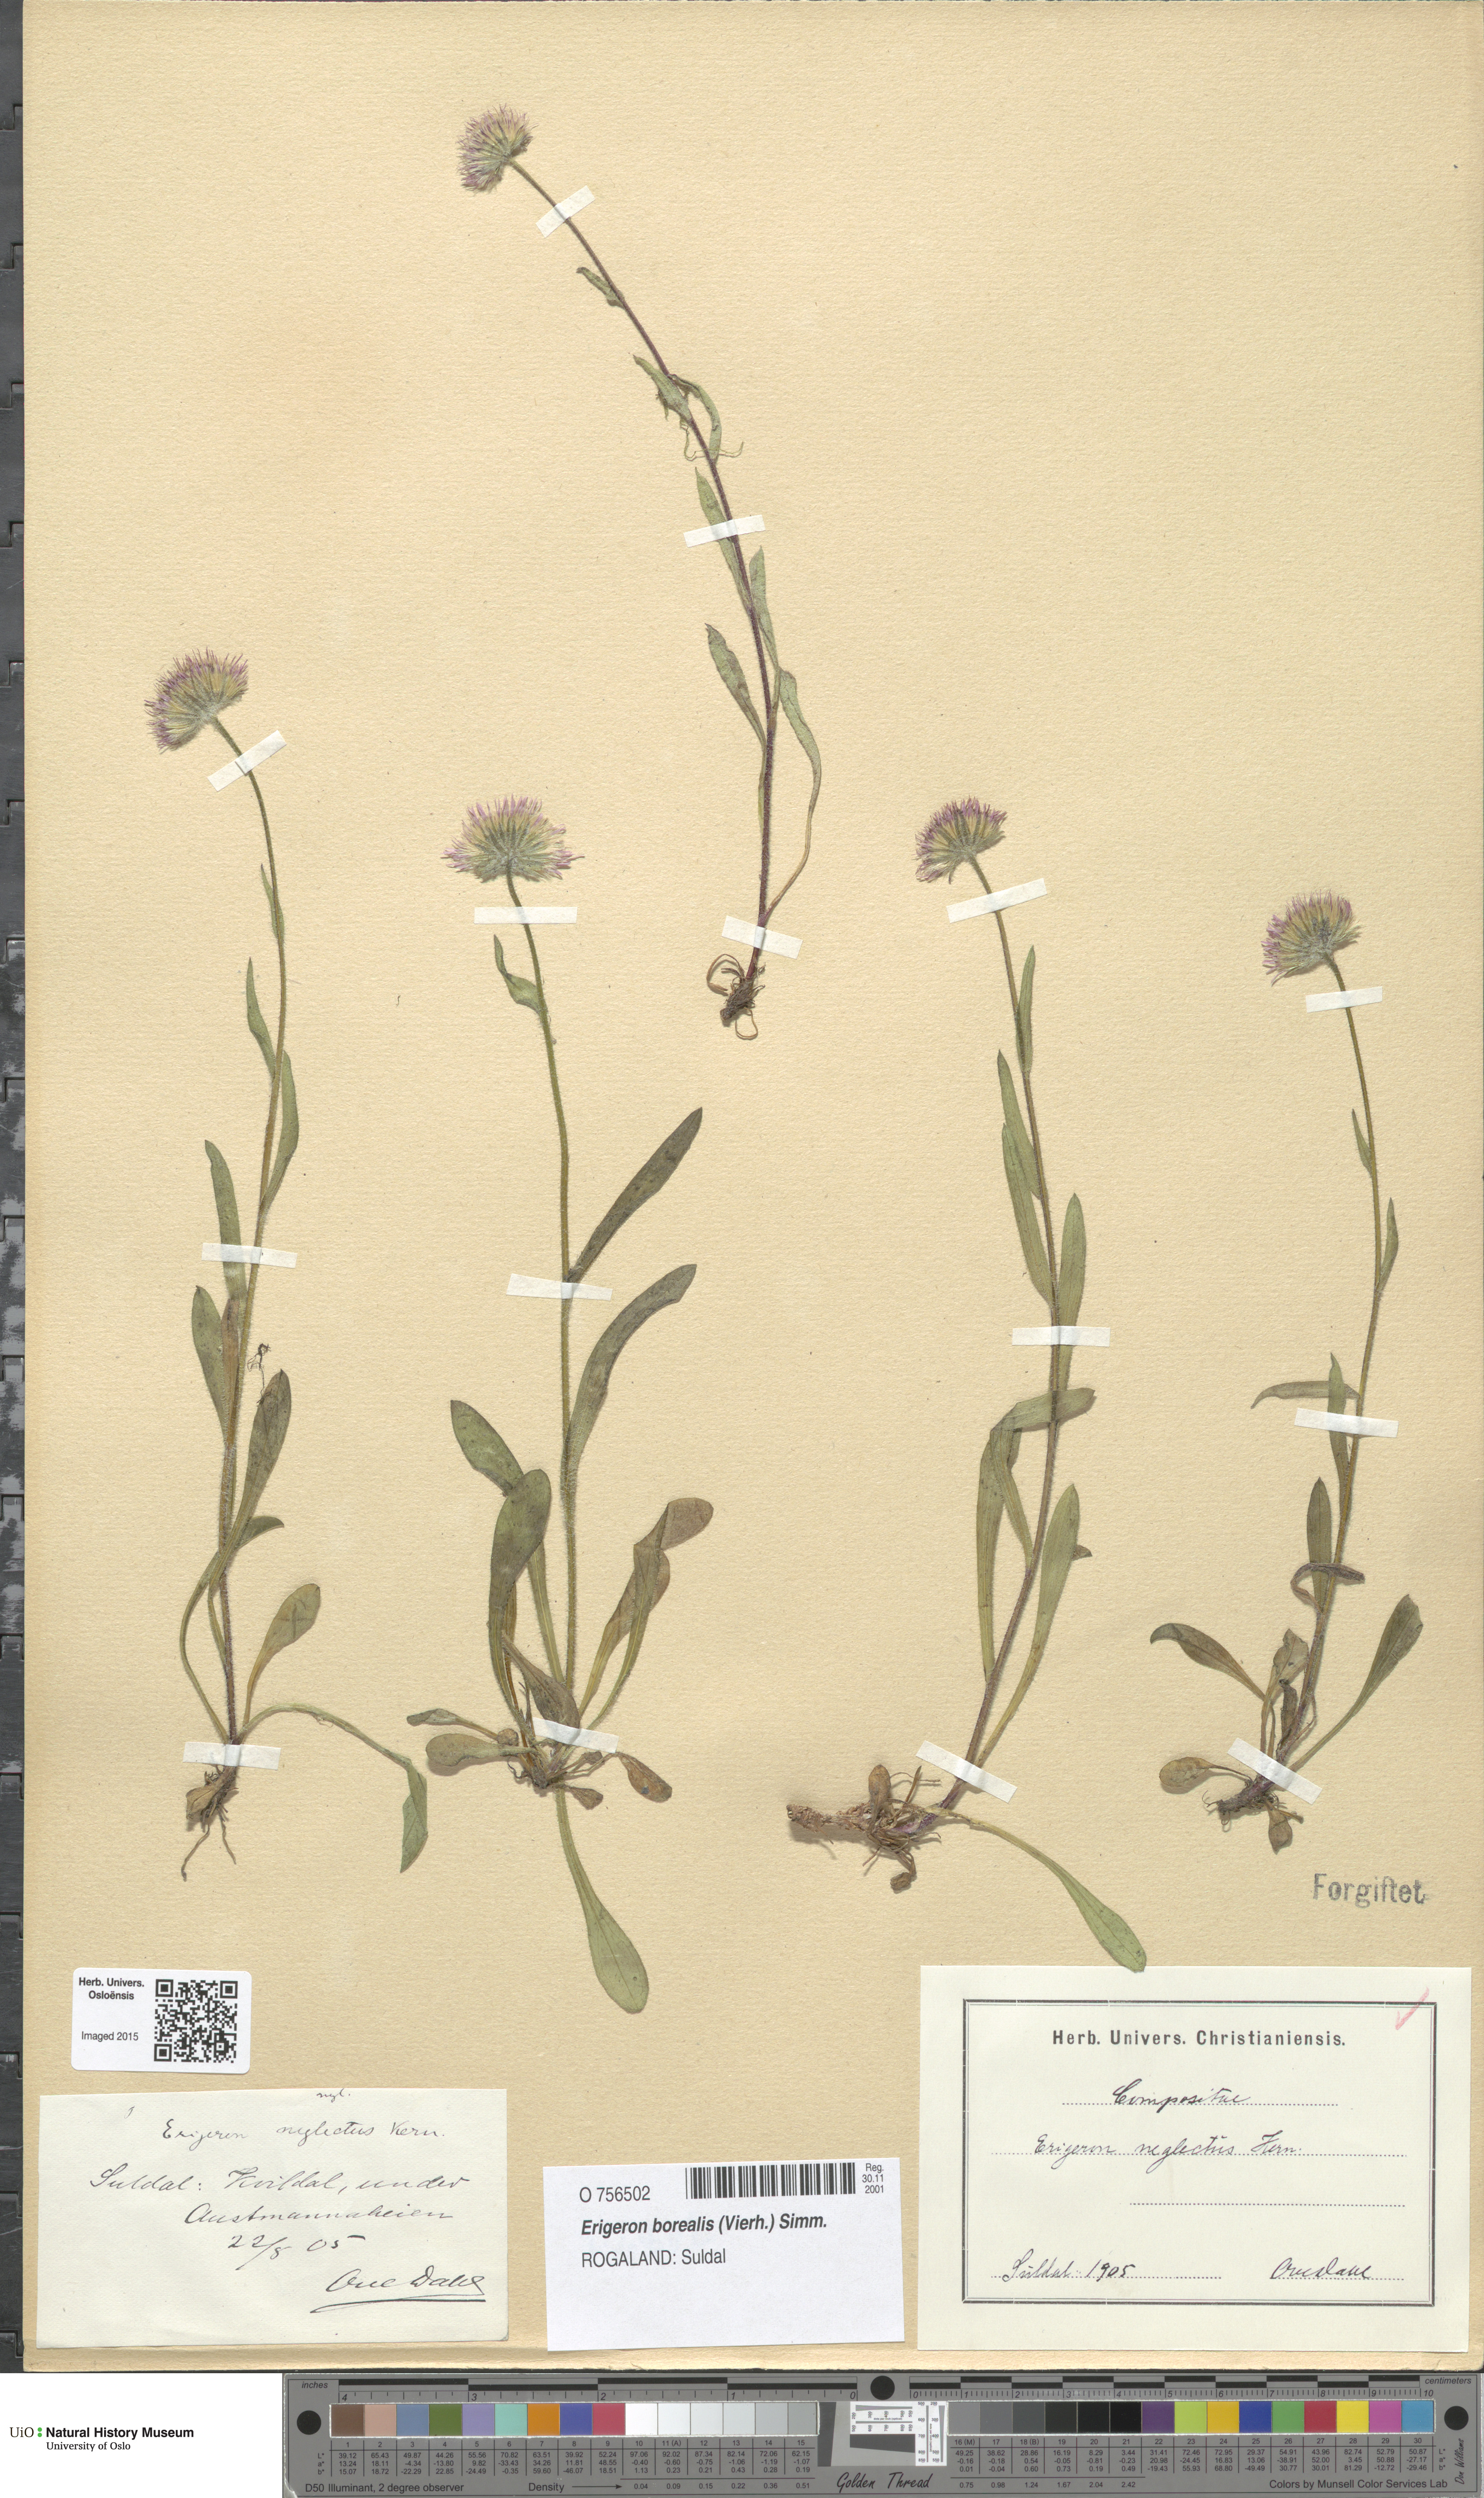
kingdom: Plantae
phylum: Tracheophyta
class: Magnoliopsida
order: Asterales
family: Asteraceae
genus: Erigeron
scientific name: Erigeron borealis
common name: Alpine fleabane
